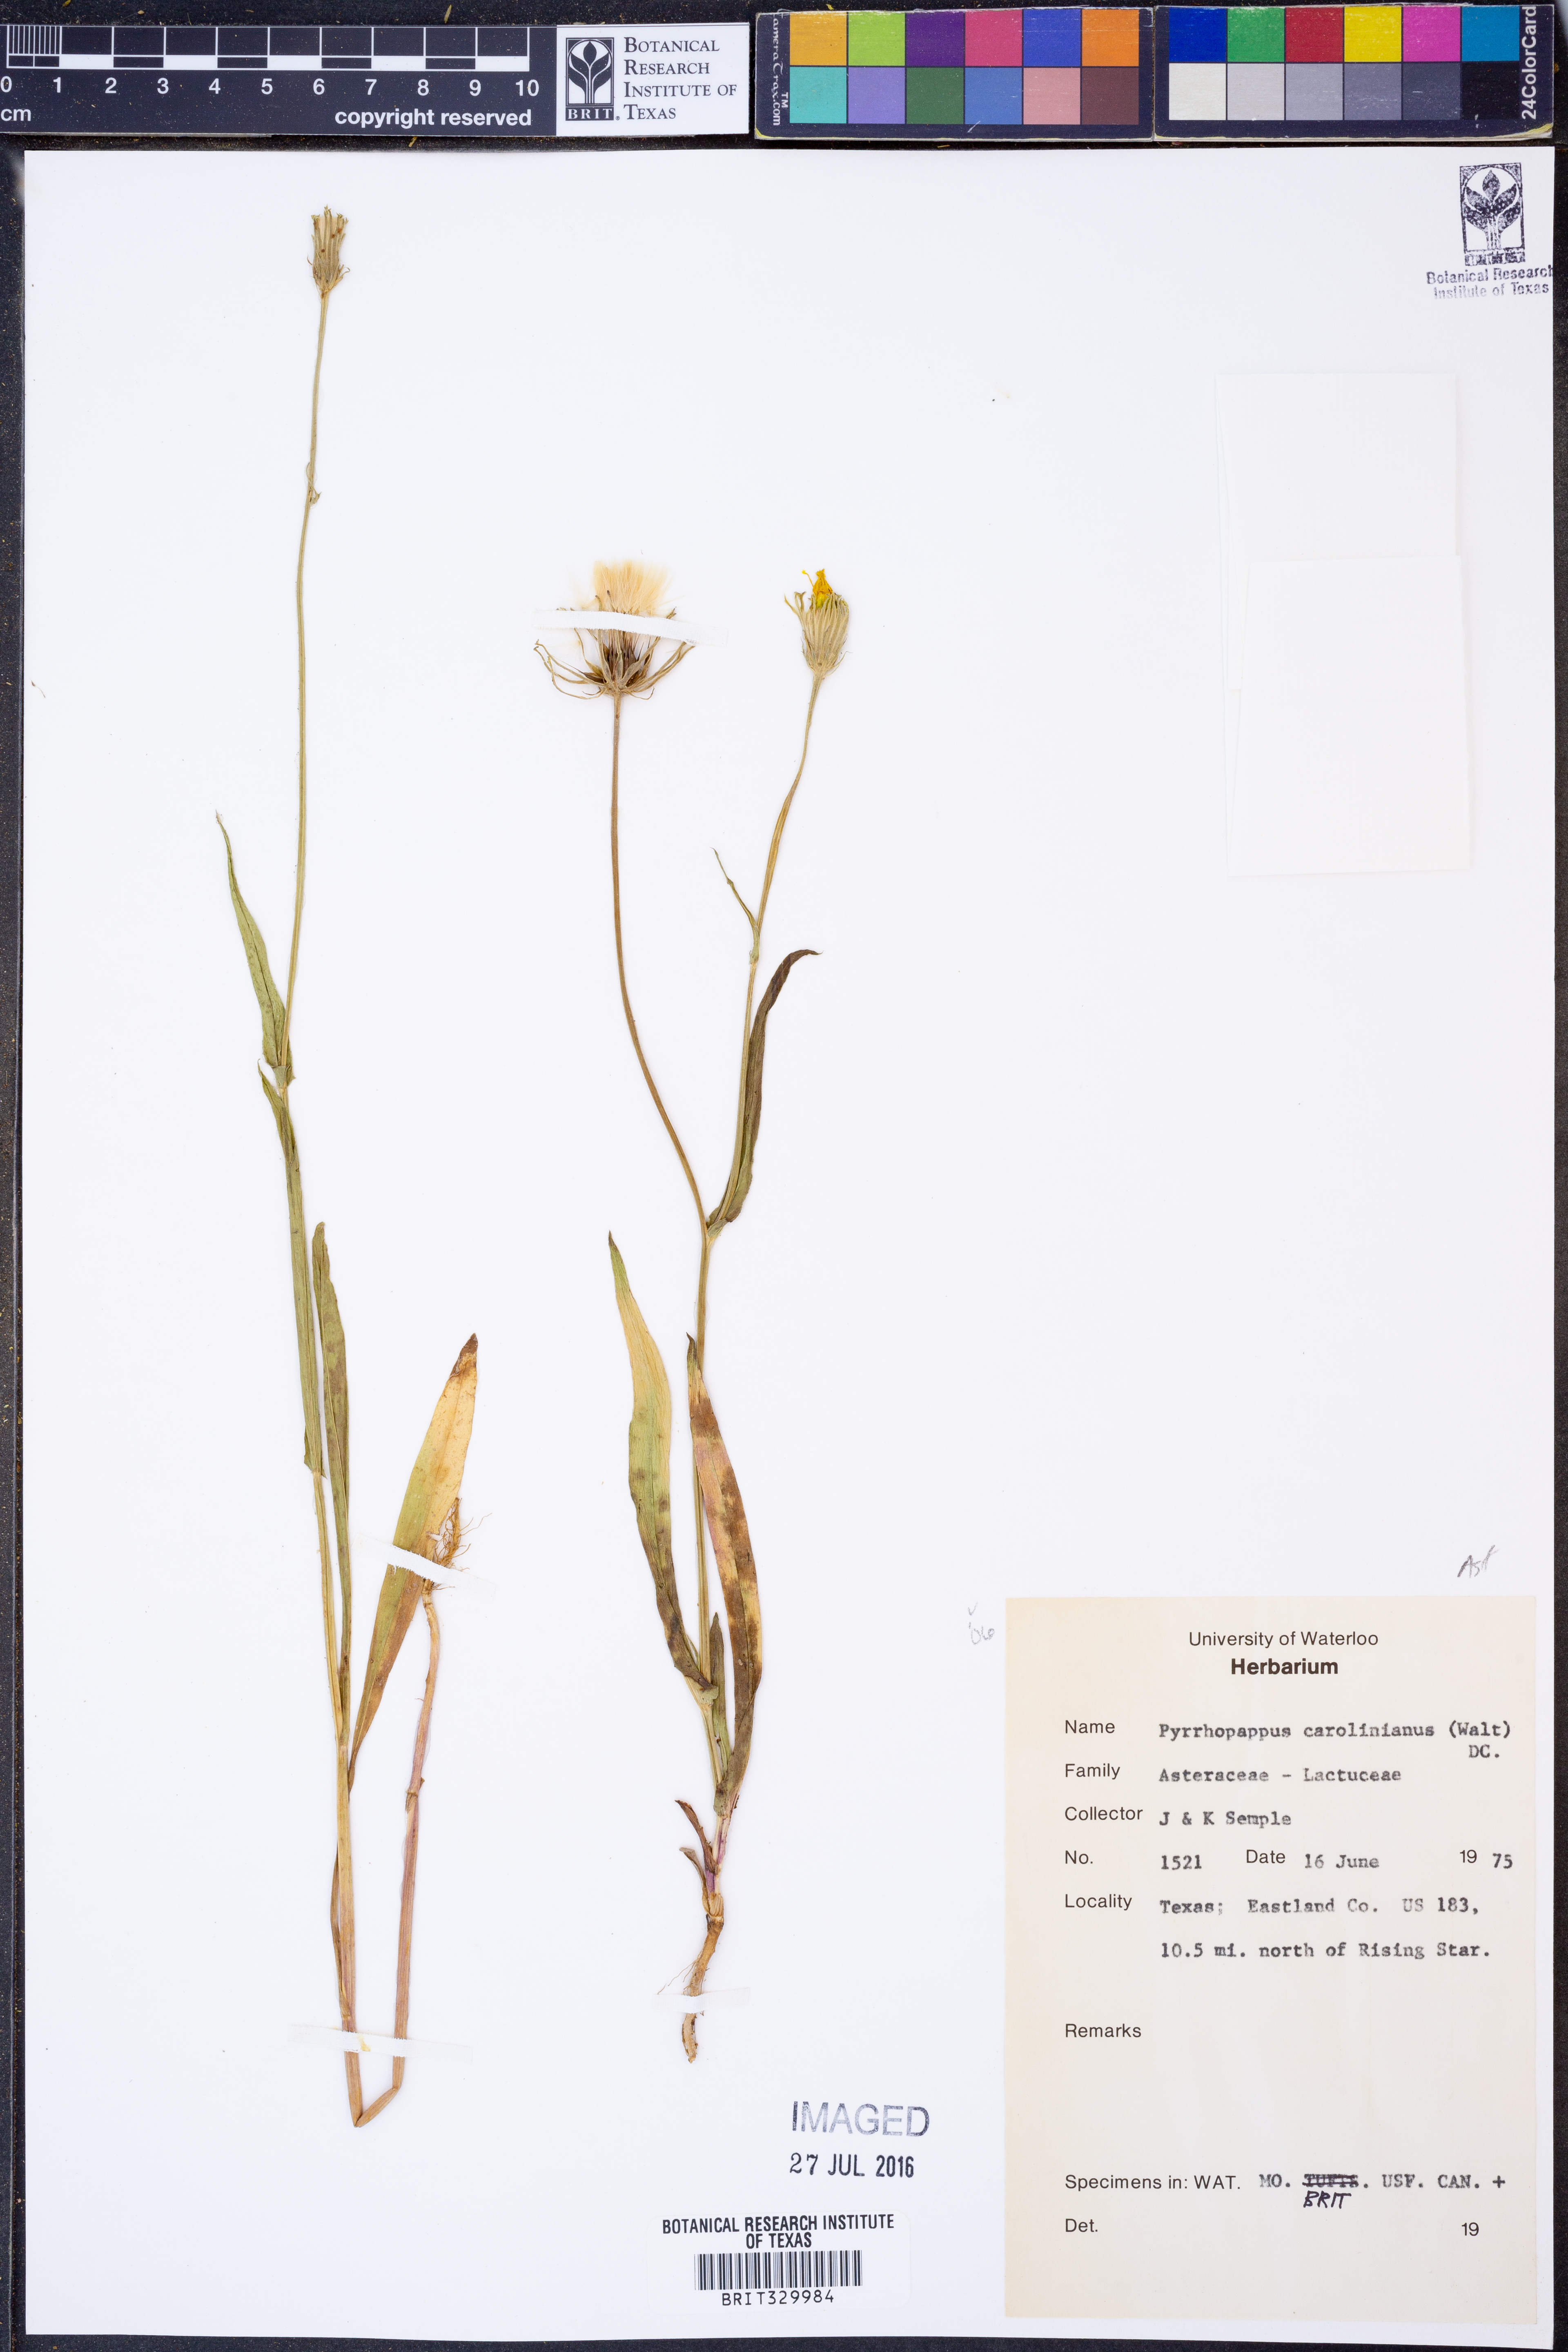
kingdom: Plantae
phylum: Tracheophyta
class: Magnoliopsida
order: Asterales
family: Asteraceae
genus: Pyrrhopappus
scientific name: Pyrrhopappus carolinianus
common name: Carolina desert-chicory
